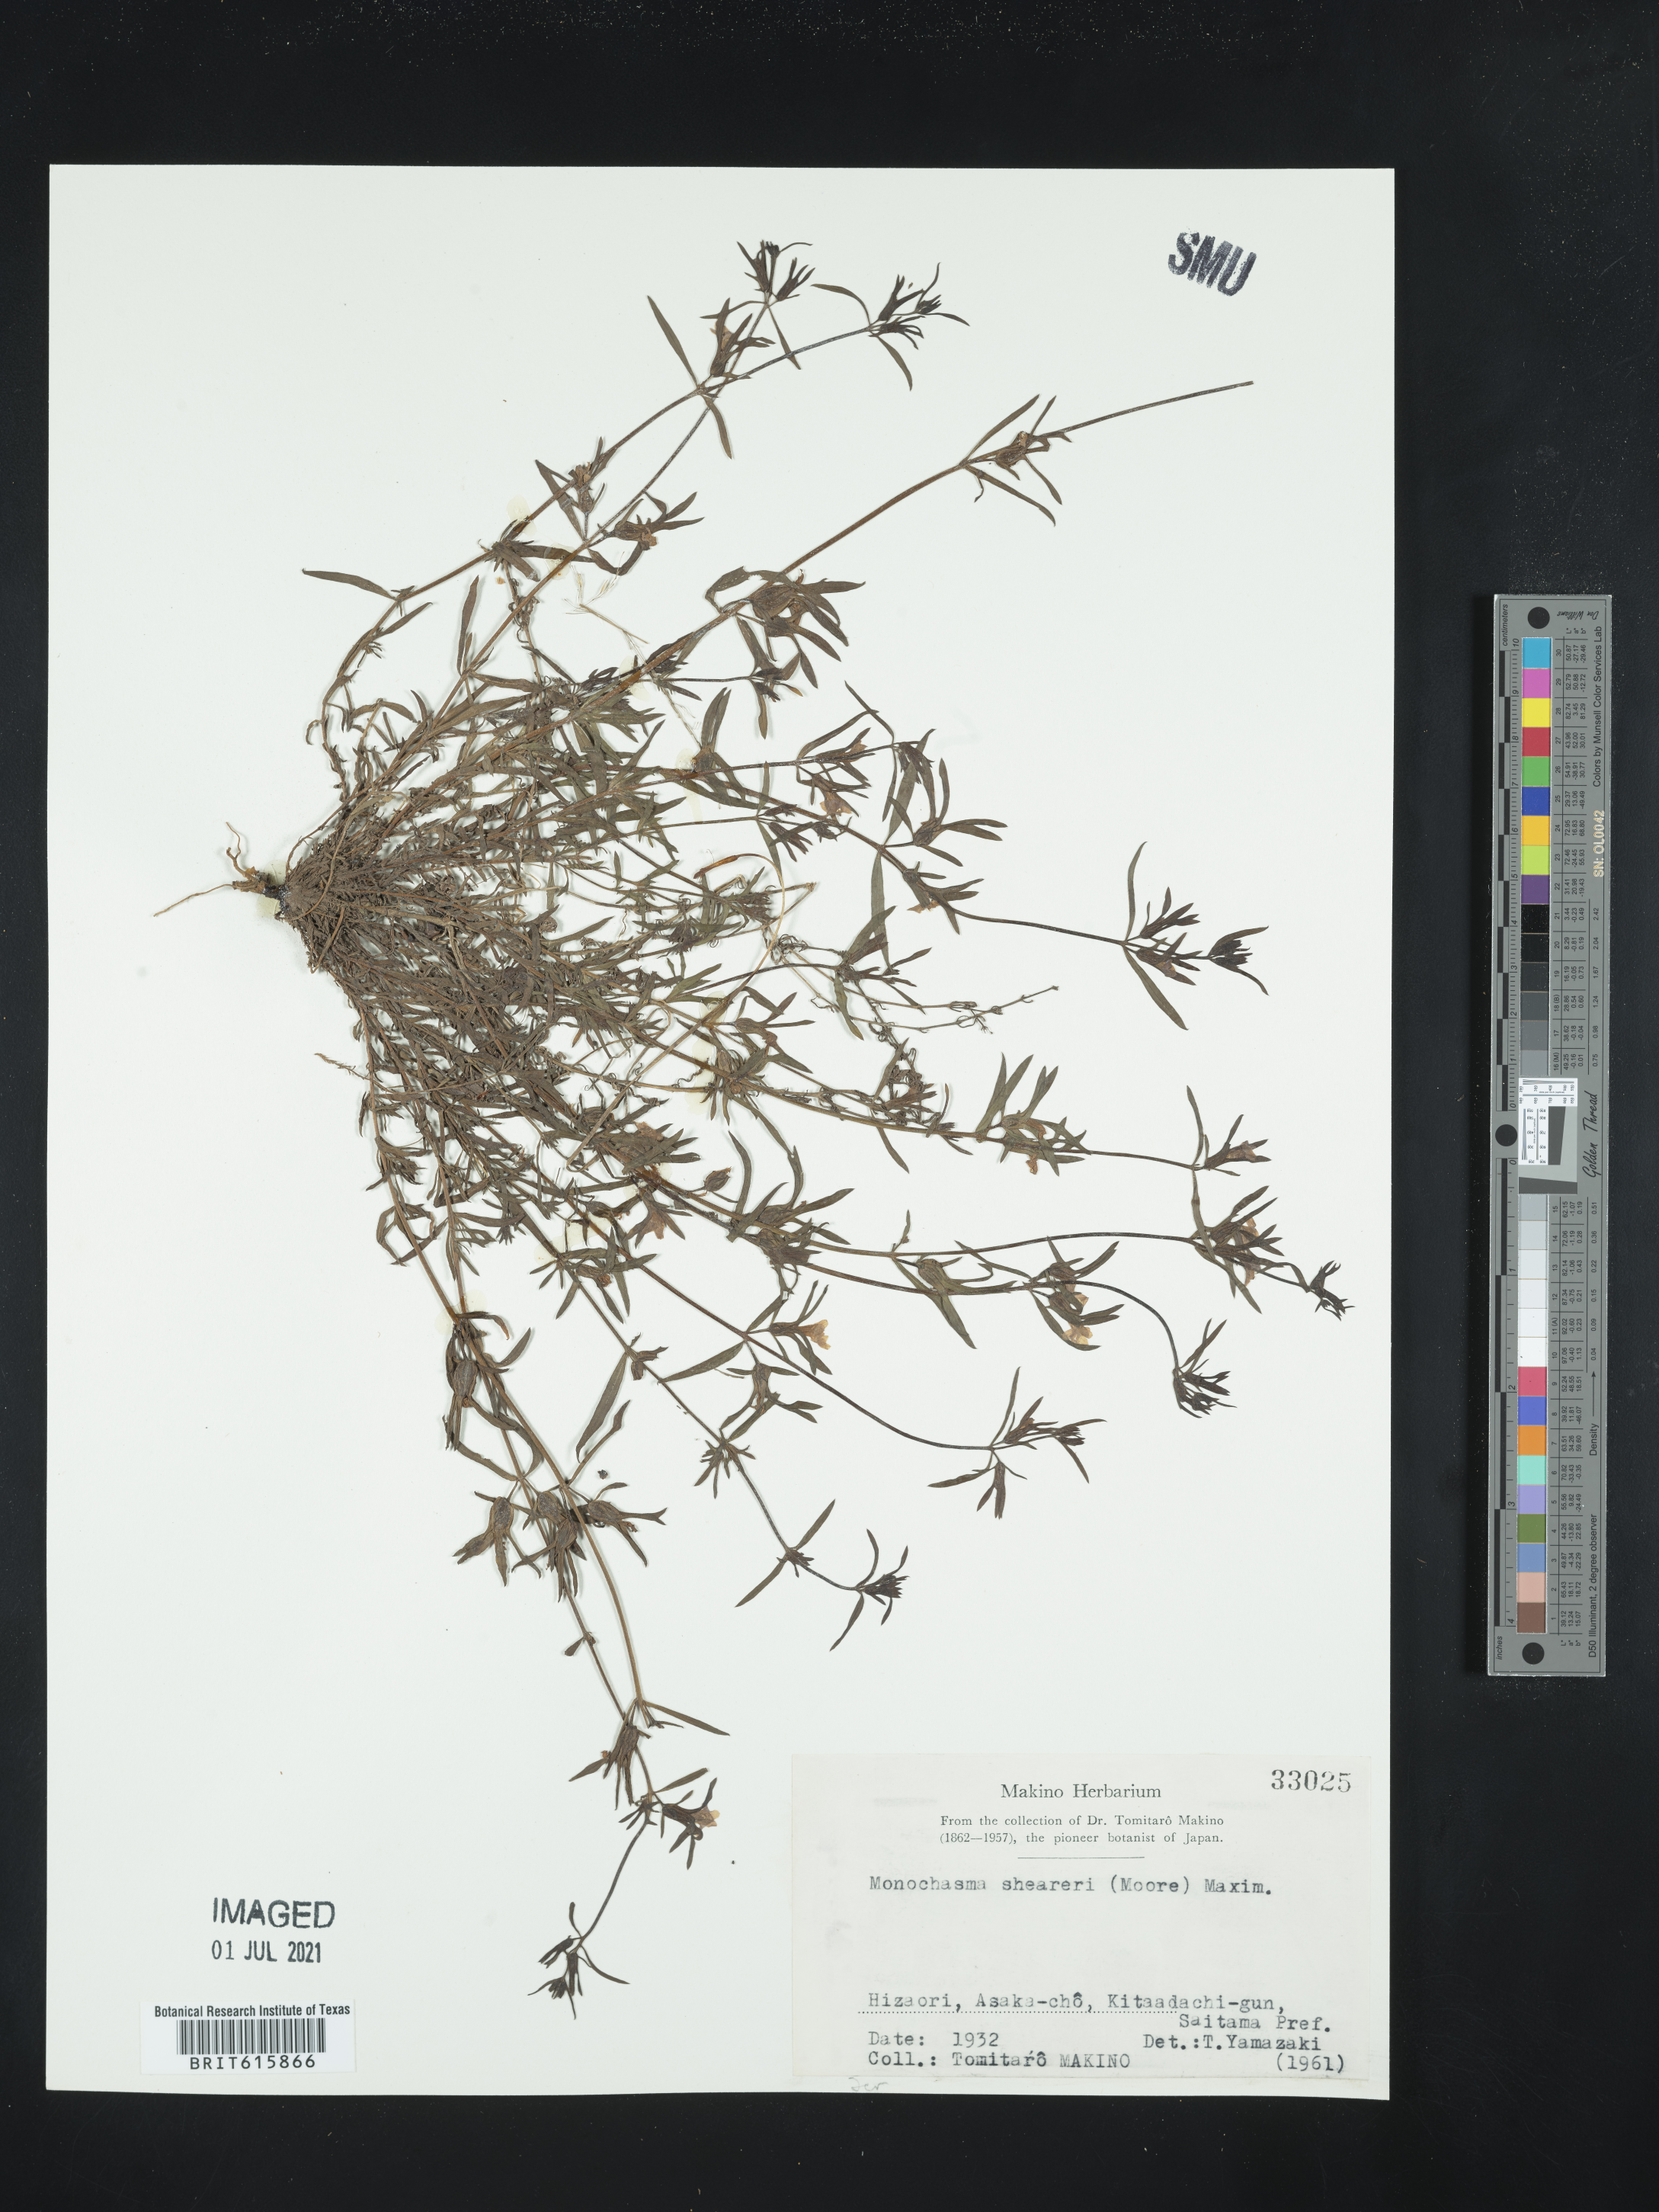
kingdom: Plantae
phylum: Tracheophyta
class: Magnoliopsida
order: Lamiales
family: Orobanchaceae
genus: Monochasma
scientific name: Monochasma sheareri
